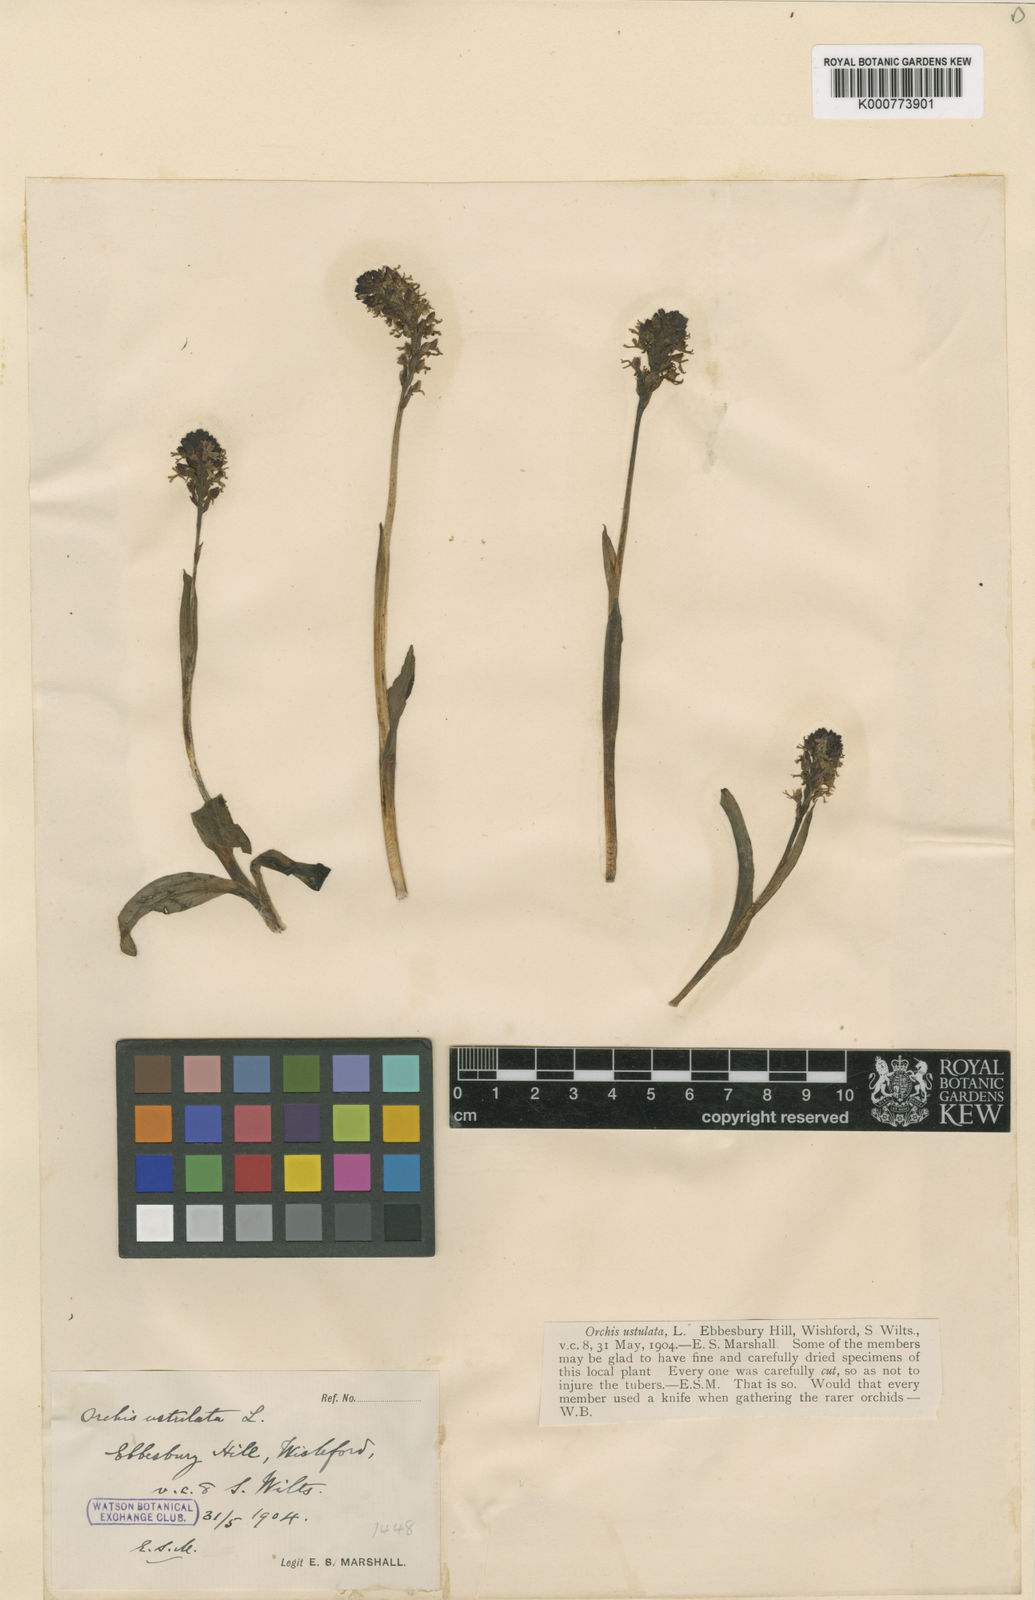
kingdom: Plantae
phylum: Tracheophyta
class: Liliopsida
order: Asparagales
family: Orchidaceae
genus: Neotinea
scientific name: Neotinea ustulata
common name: Burnt orchid
